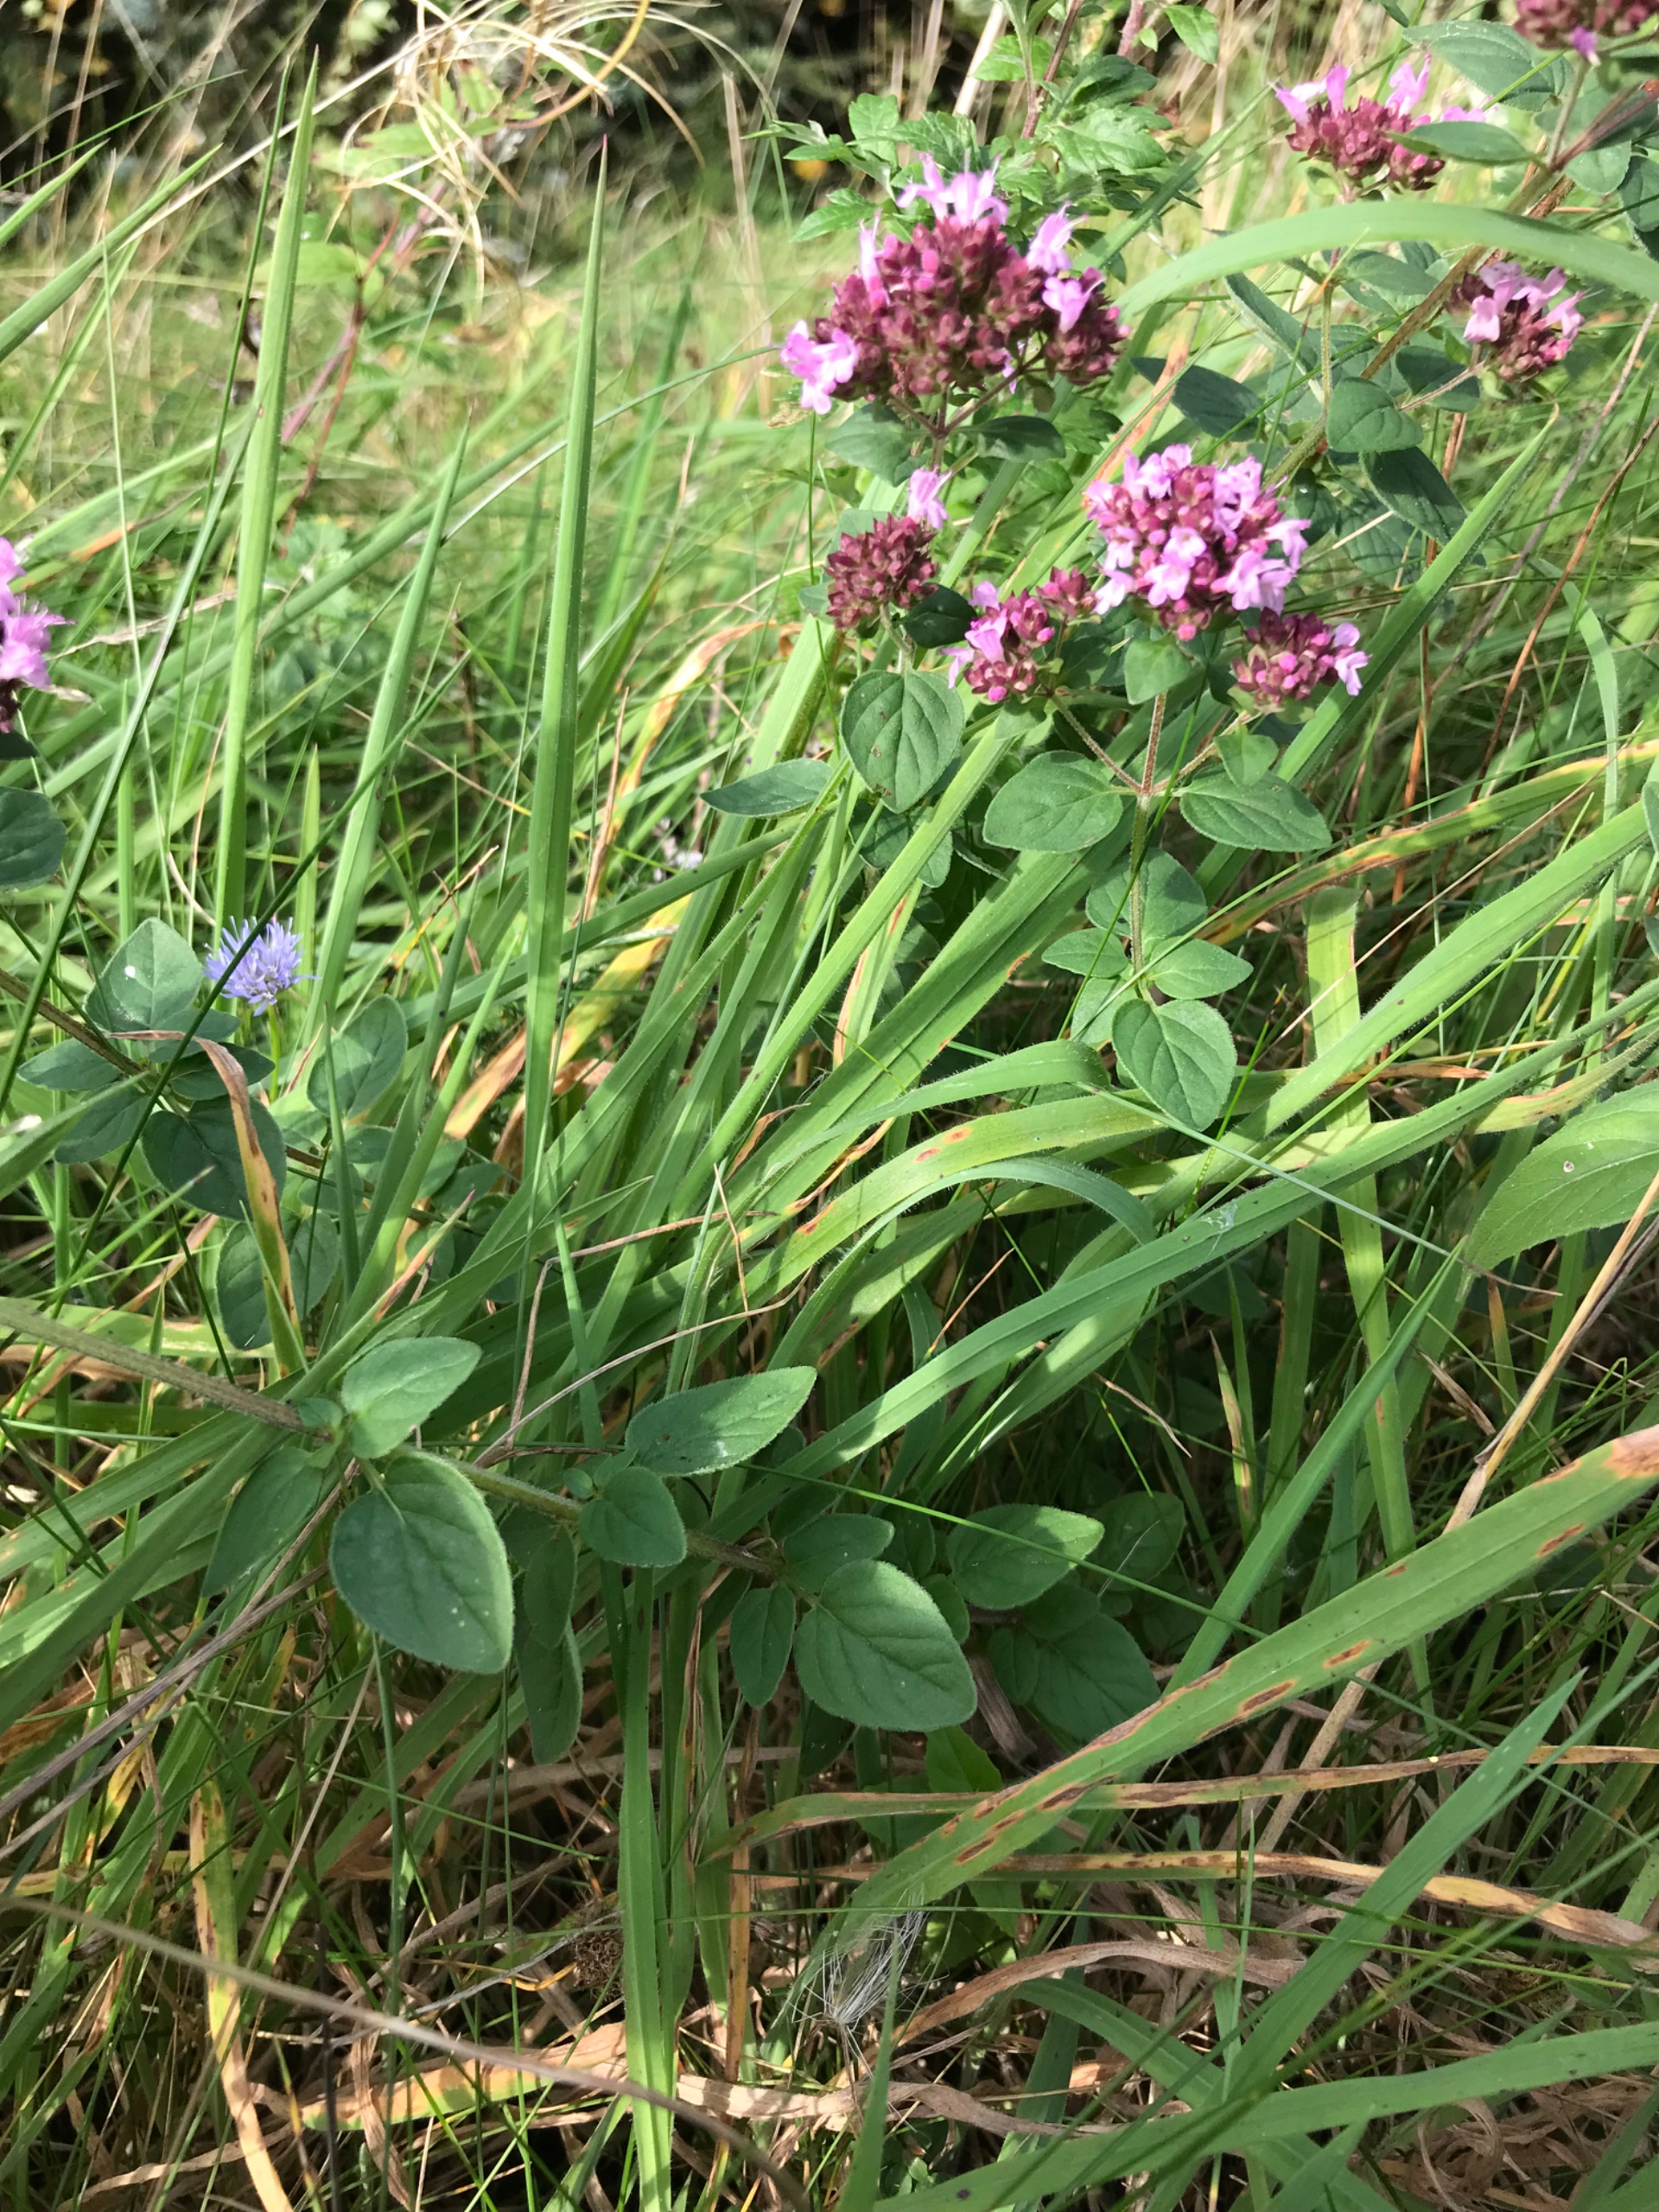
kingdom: Plantae
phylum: Tracheophyta
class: Magnoliopsida
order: Lamiales
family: Lamiaceae
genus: Origanum
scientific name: Origanum vulgare
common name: Merian
